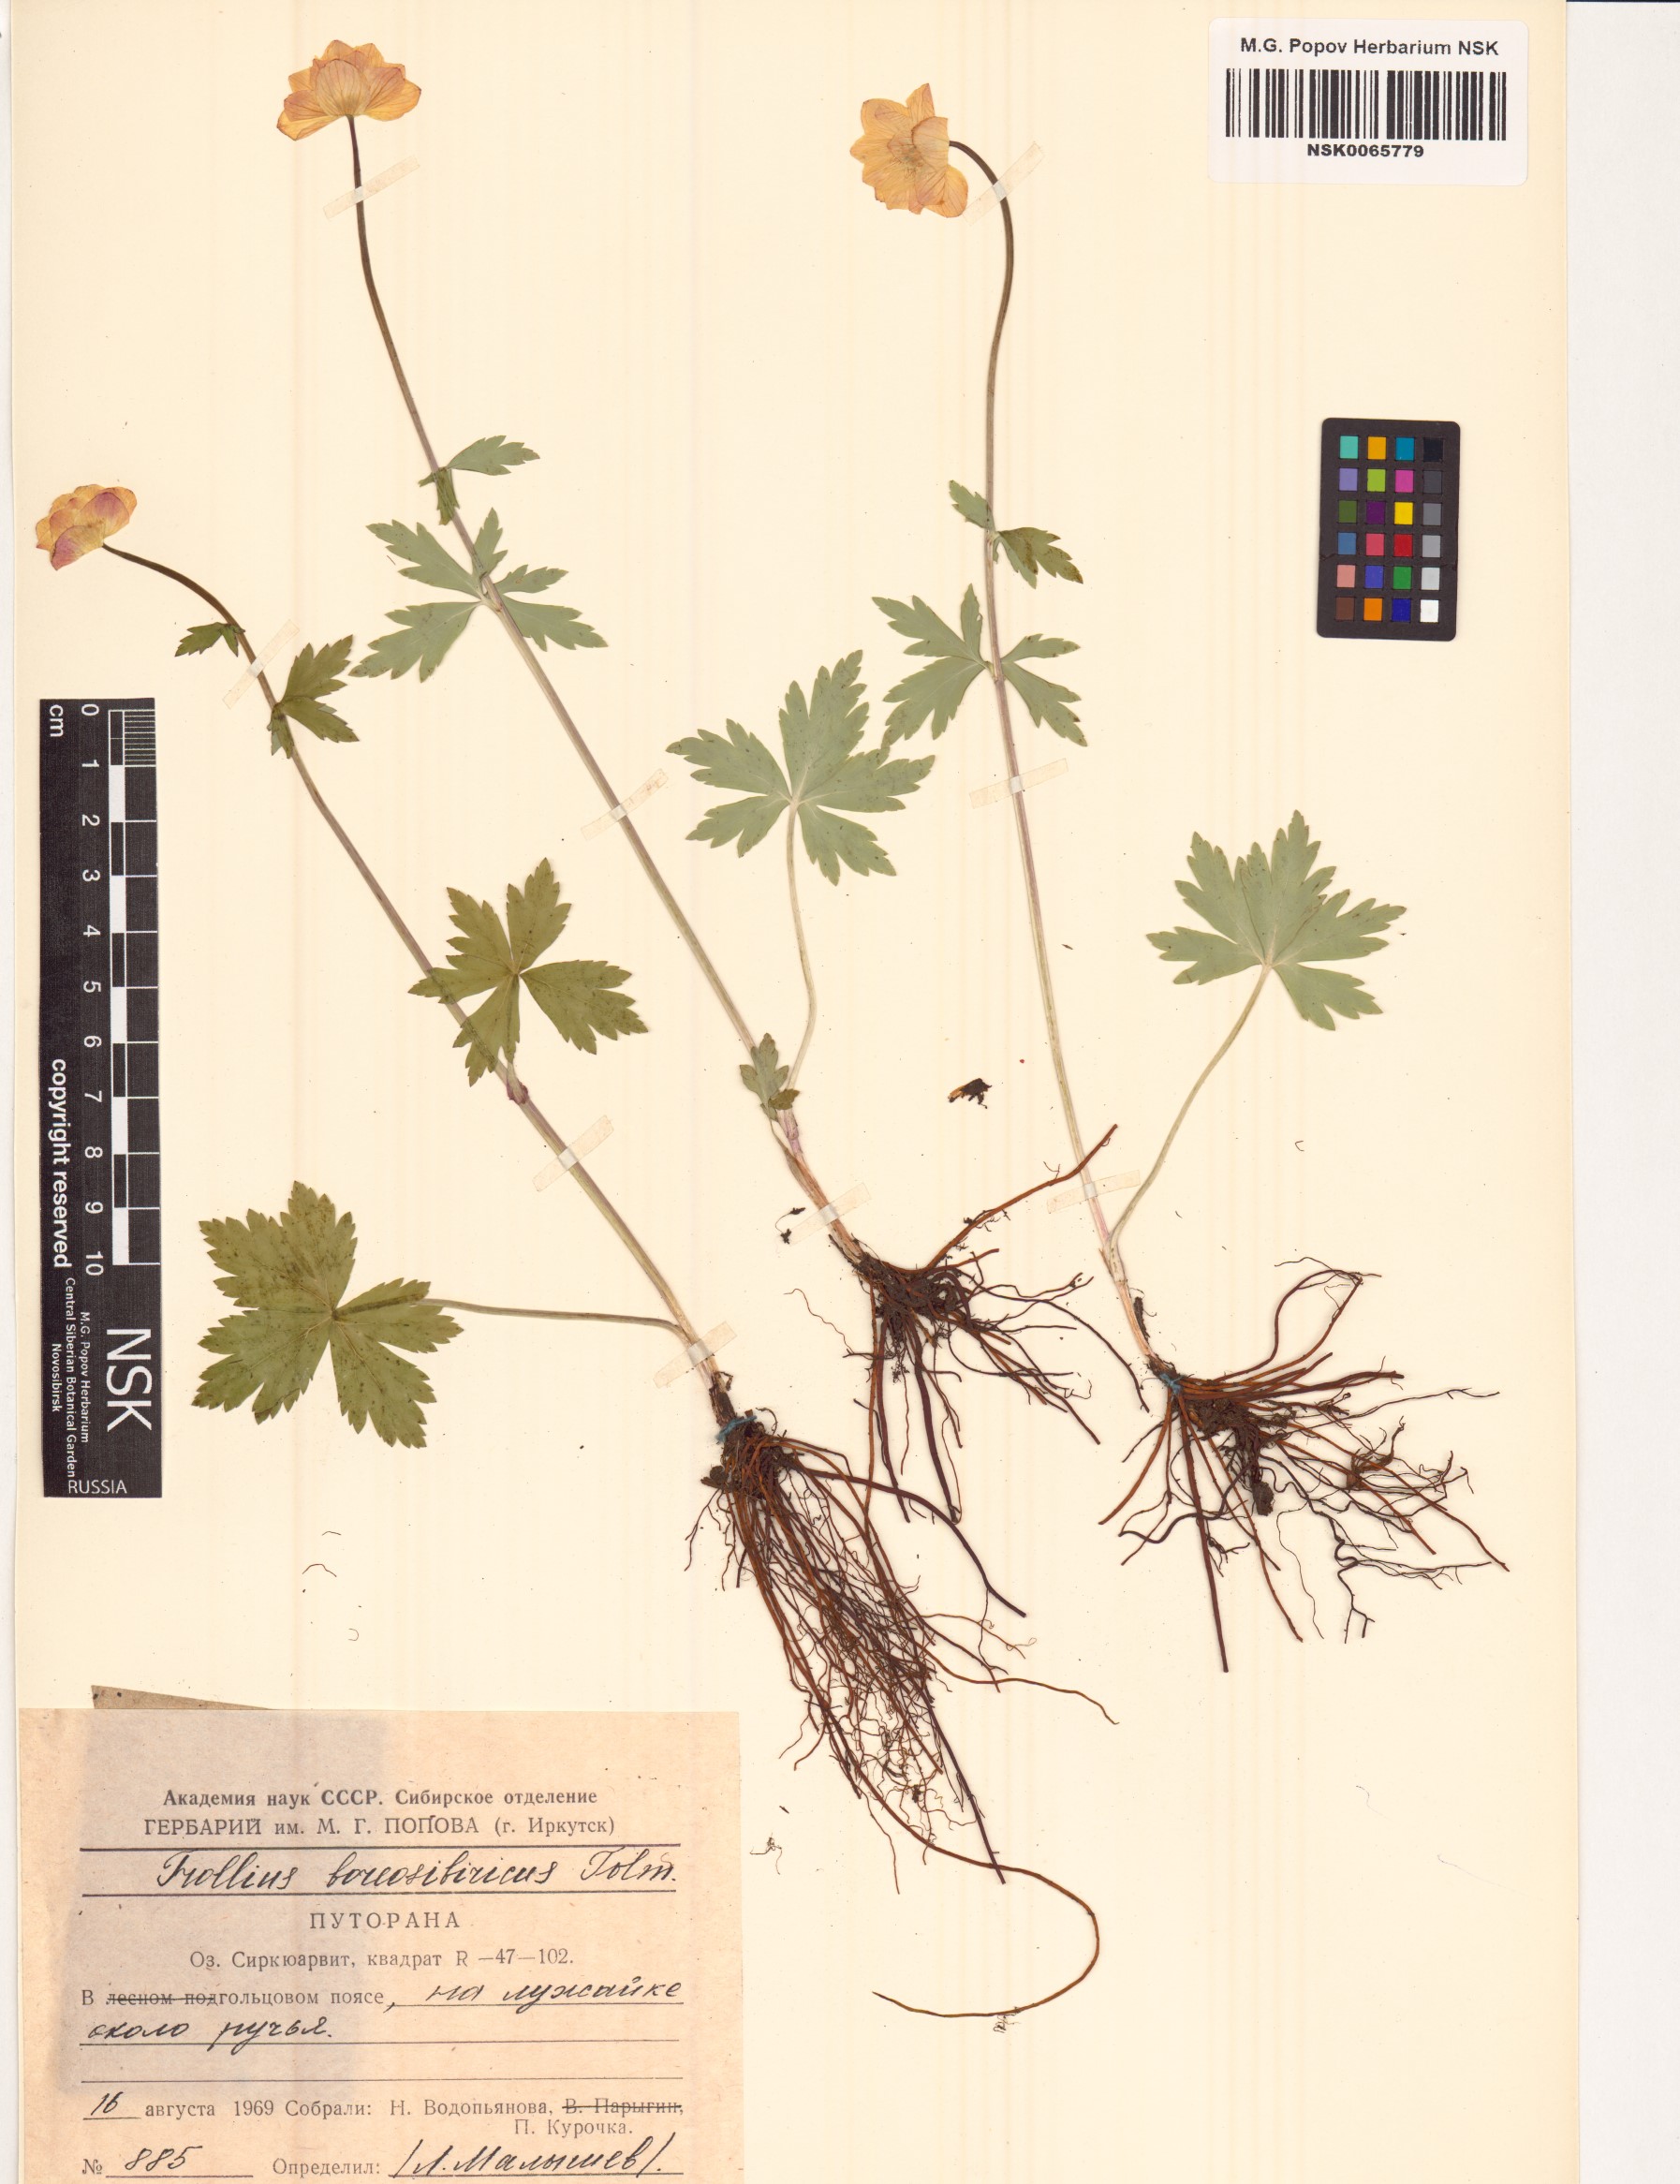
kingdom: Plantae
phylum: Tracheophyta
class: Magnoliopsida
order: Ranunculales
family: Ranunculaceae
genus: Trollius
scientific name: Trollius sibiricus
